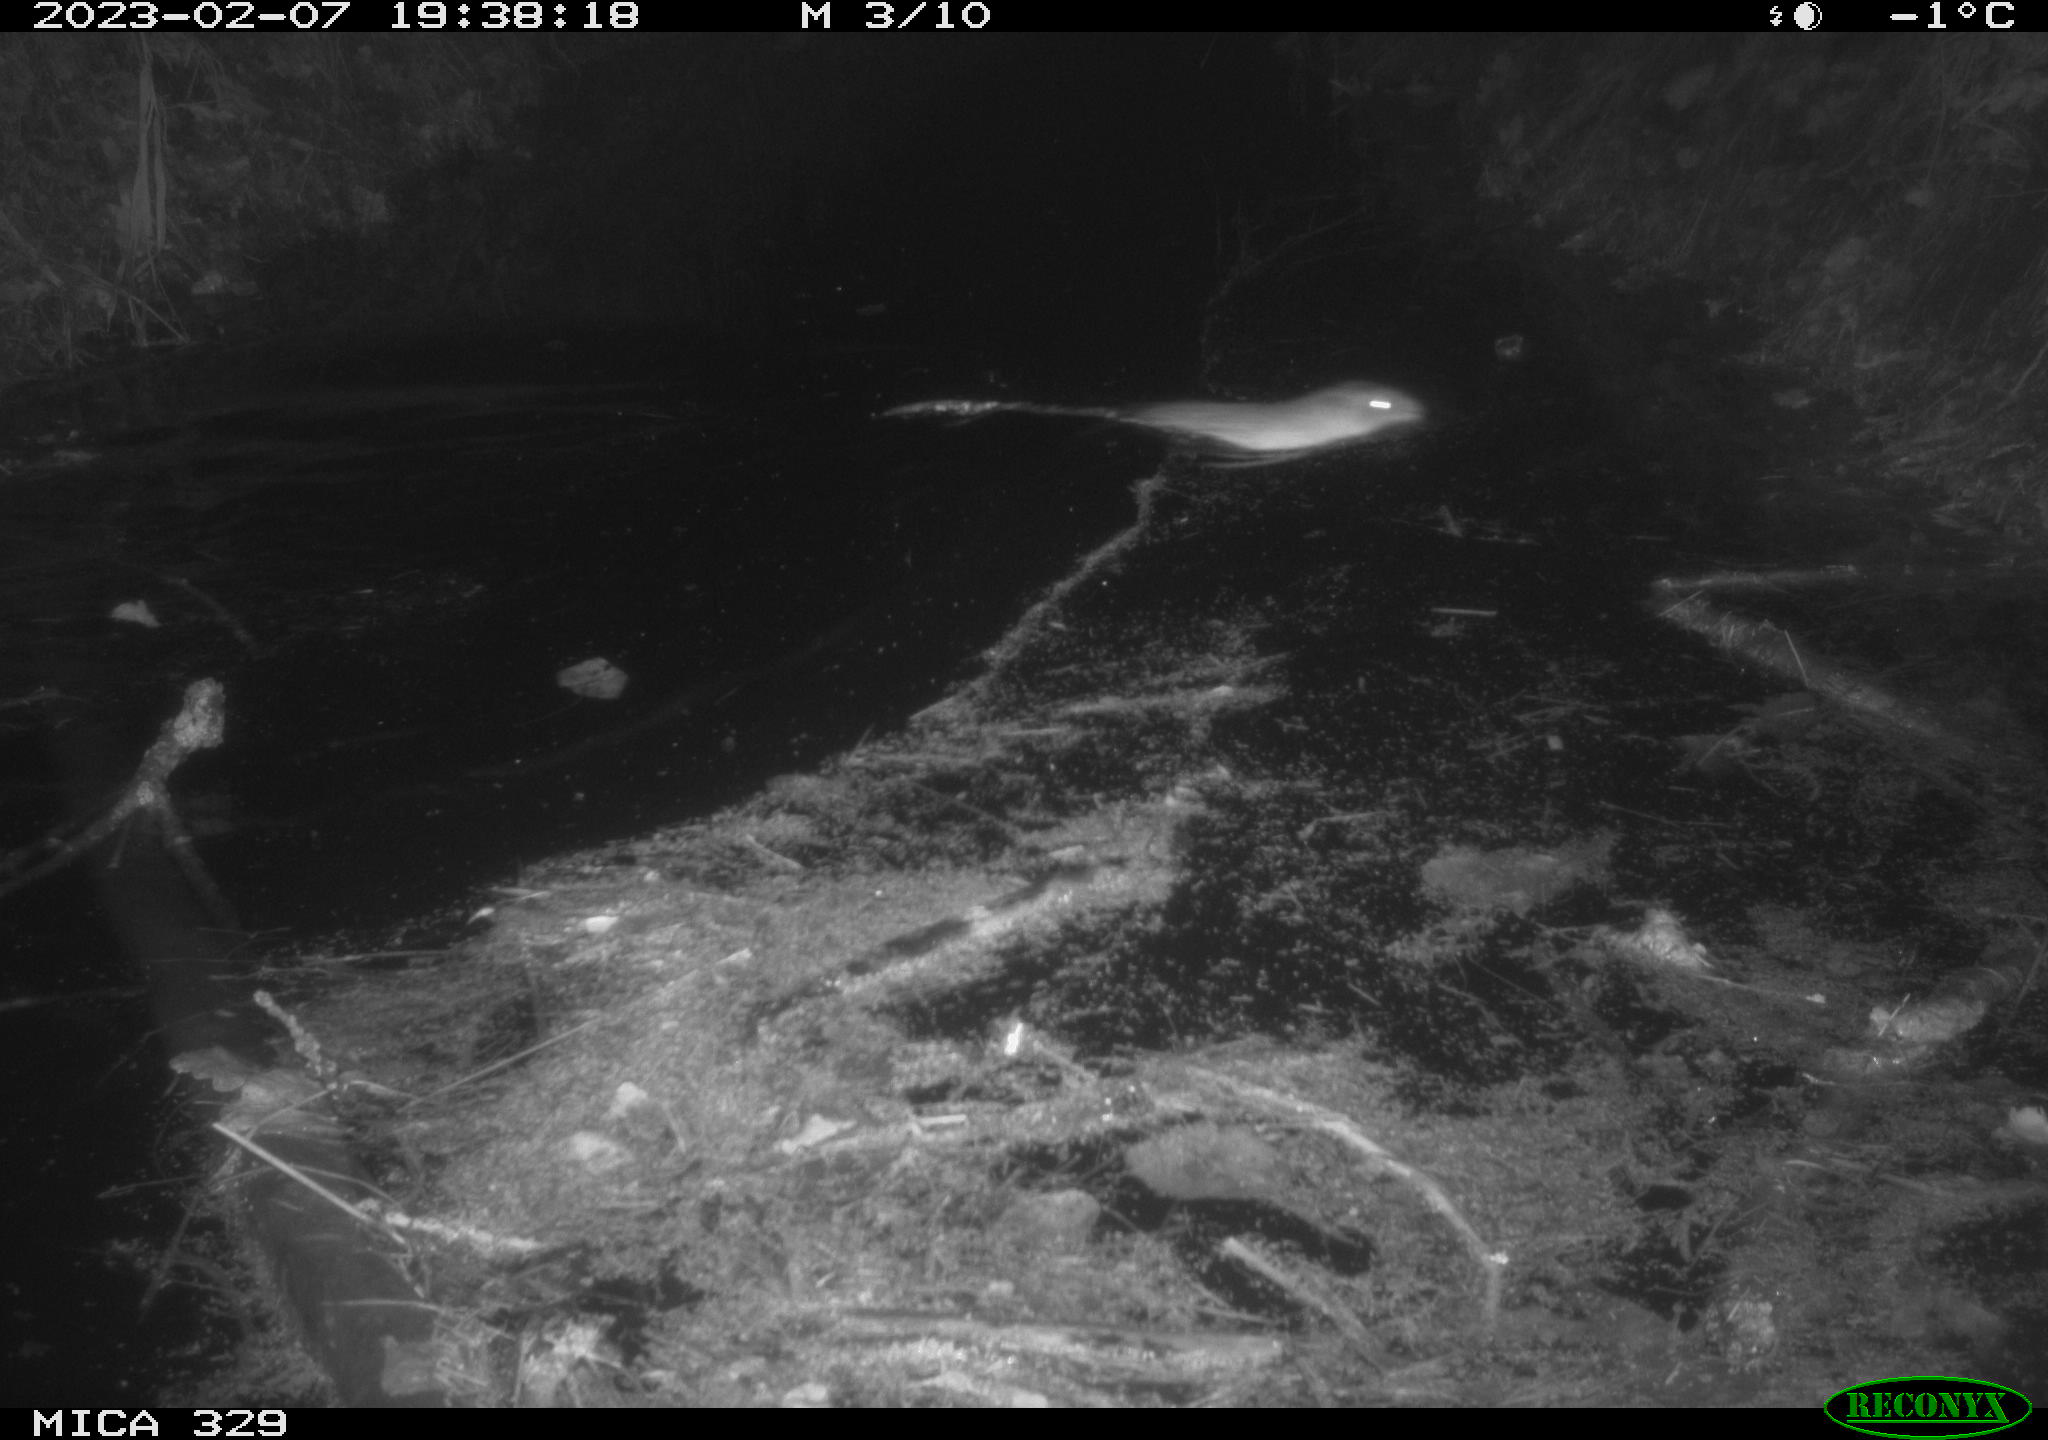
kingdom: Animalia
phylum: Chordata
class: Mammalia
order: Rodentia
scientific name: Rodentia
